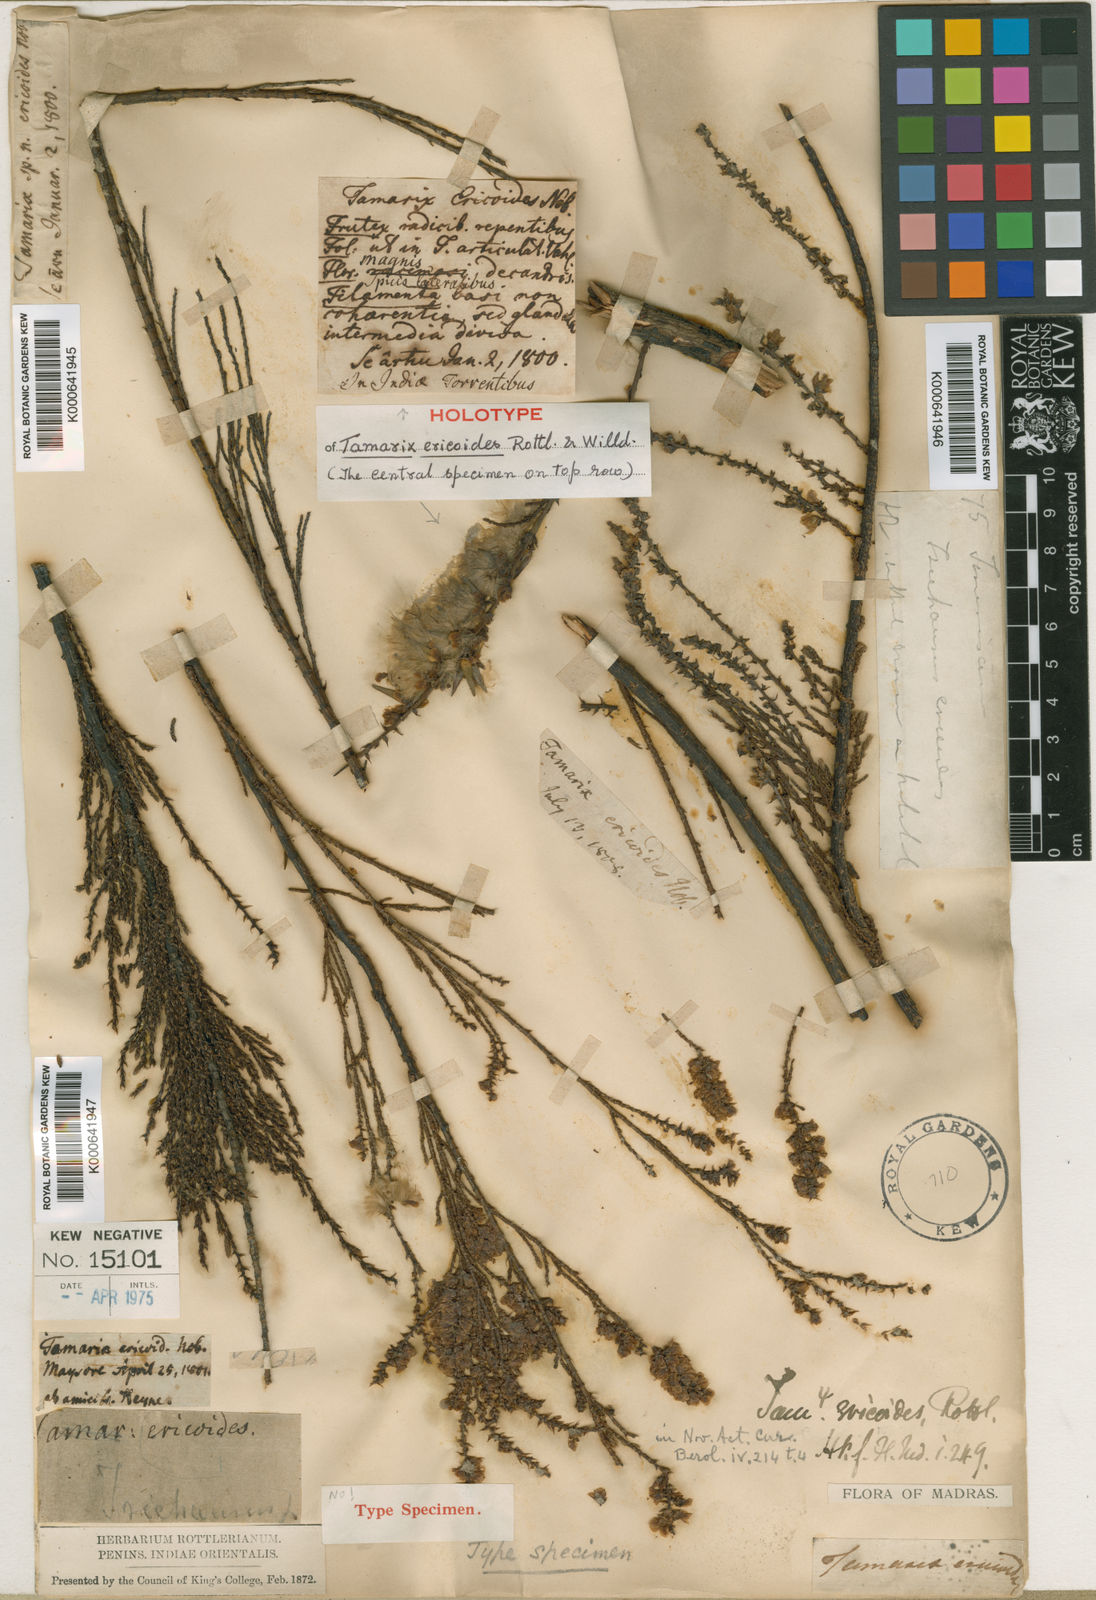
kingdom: Plantae
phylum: Tracheophyta
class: Magnoliopsida
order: Caryophyllales
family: Tamaricaceae
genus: Tamarix
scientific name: Tamarix ericoides
